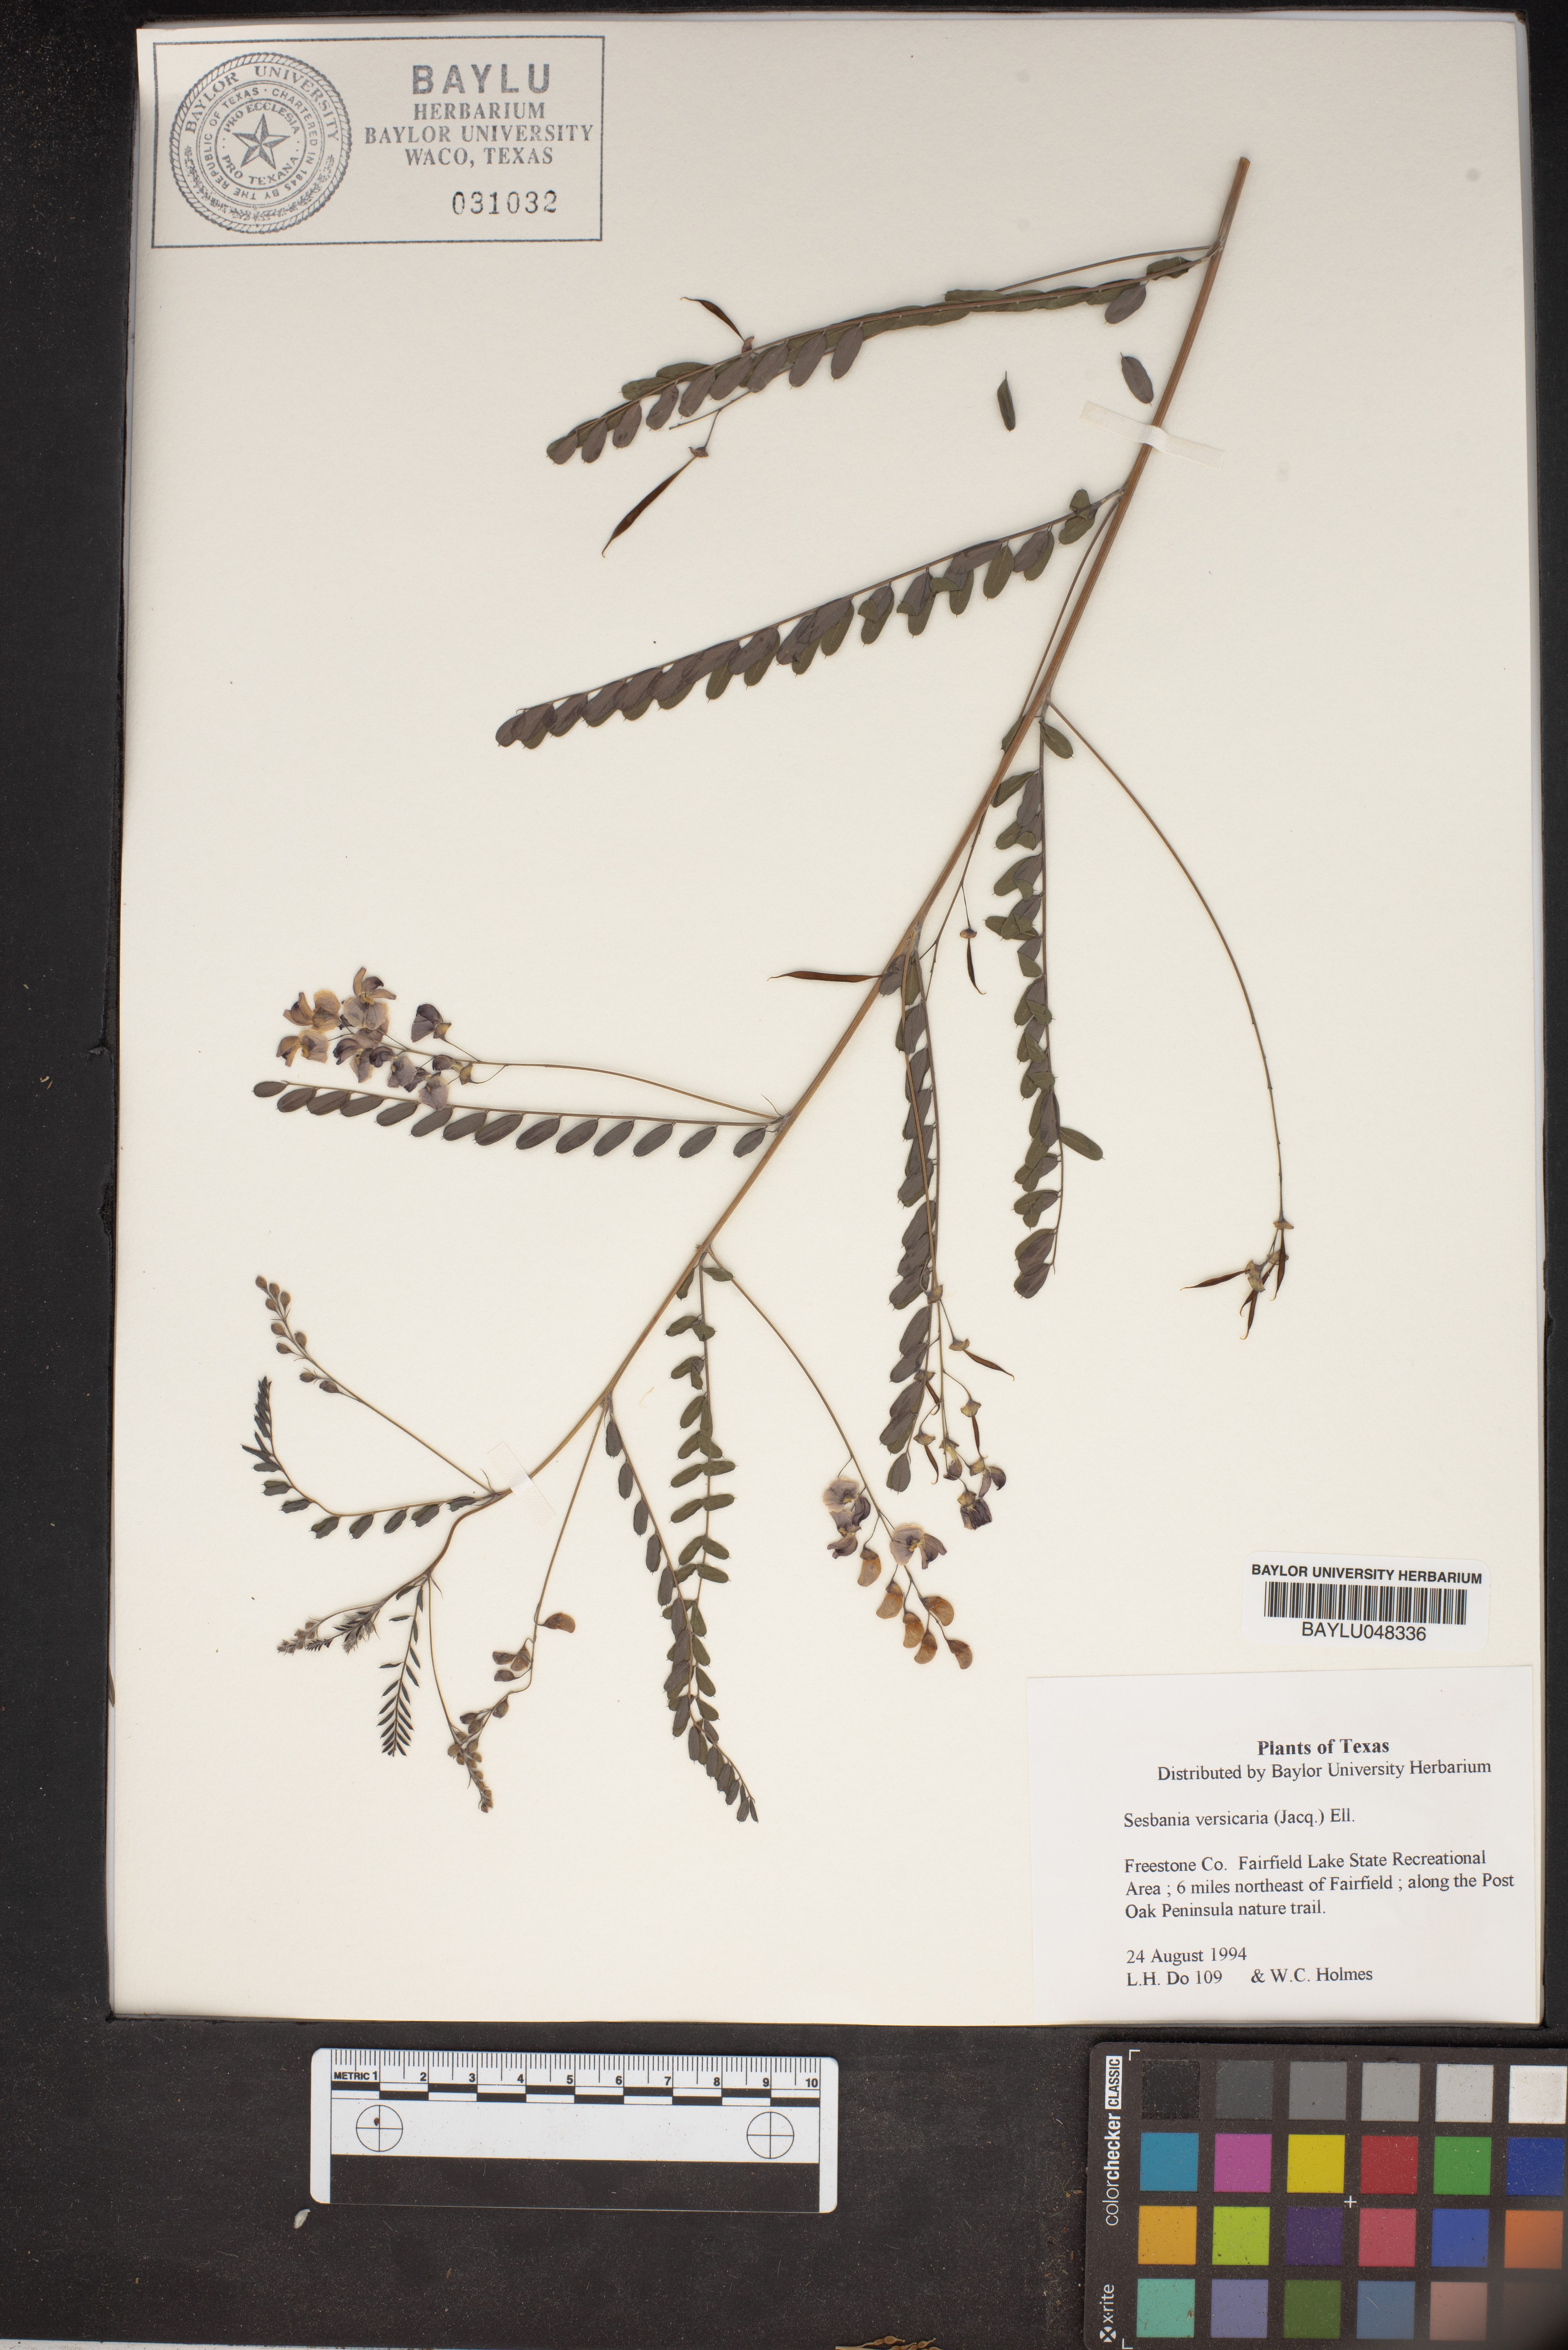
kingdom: Plantae
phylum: Tracheophyta
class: Magnoliopsida
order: Fabales
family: Fabaceae
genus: Sesbania
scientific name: Sesbania vesicaria
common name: Bagpod
